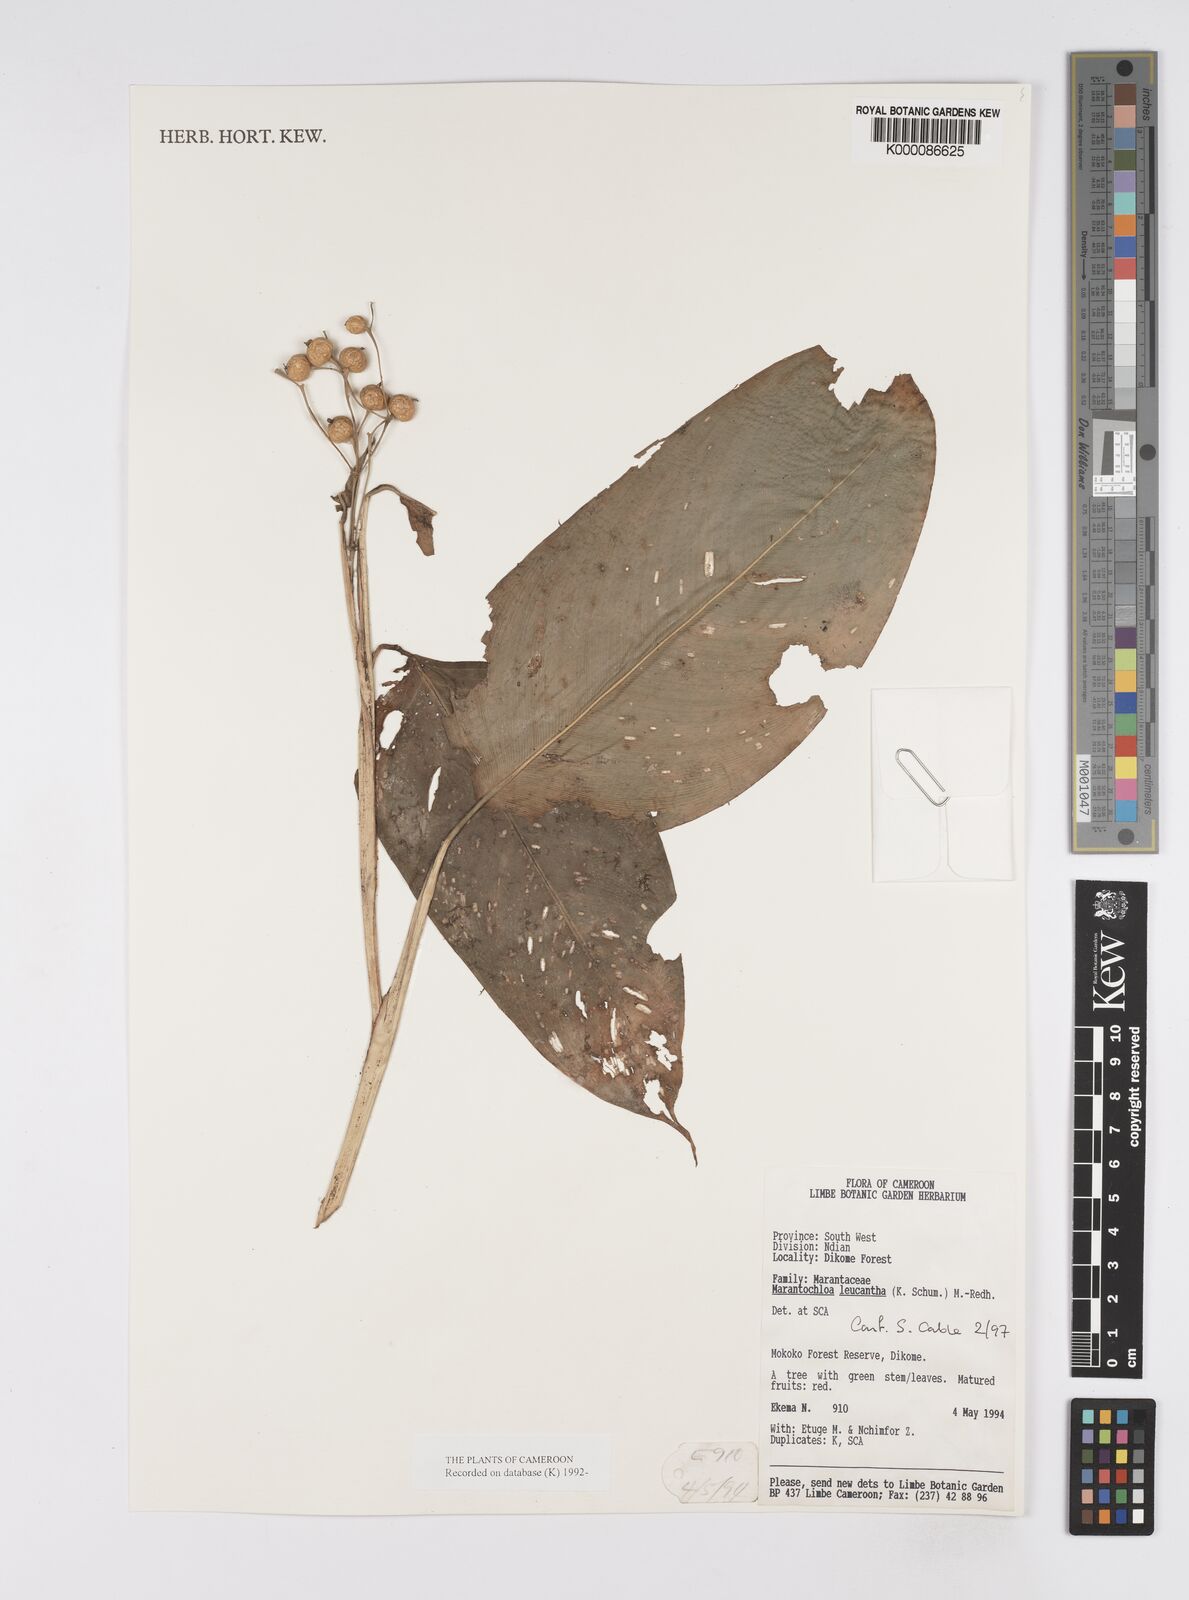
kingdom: Plantae
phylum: Tracheophyta
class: Liliopsida
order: Zingiberales
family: Marantaceae
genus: Marantochloa
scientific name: Marantochloa leucantha
